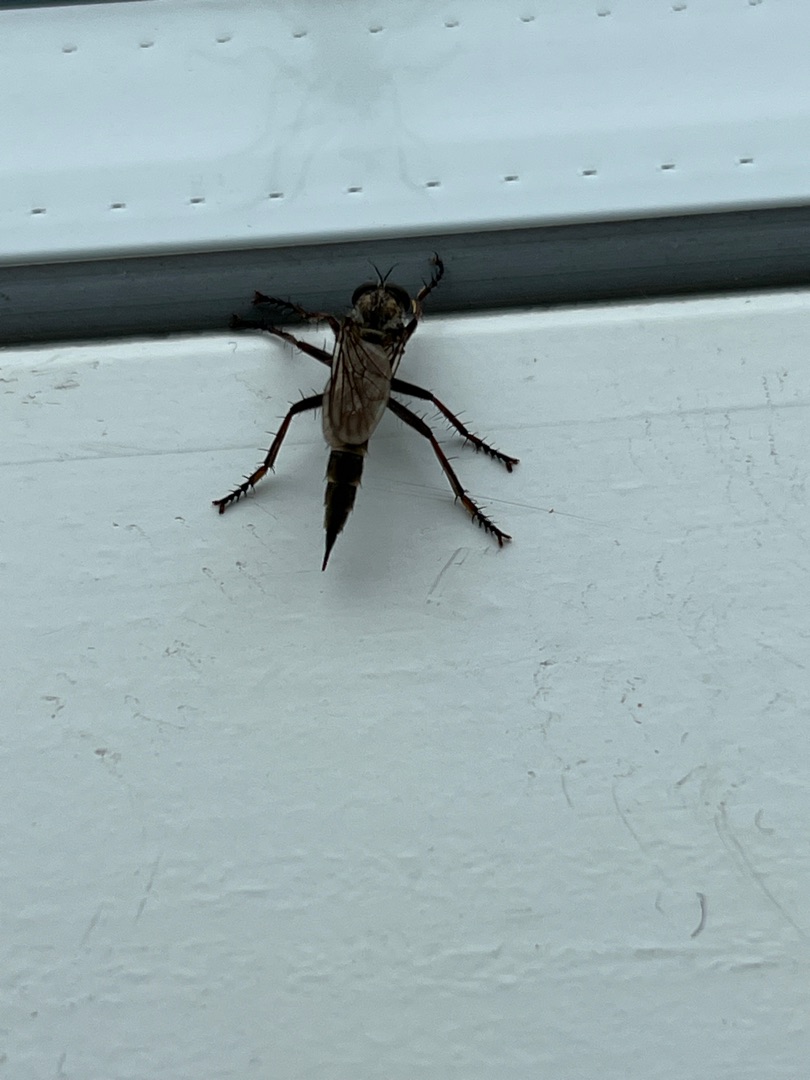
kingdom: Animalia
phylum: Arthropoda
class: Insecta
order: Diptera
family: Asilidae
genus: Machimus
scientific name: Machimus atricapillus
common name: Sort hårrovflue
